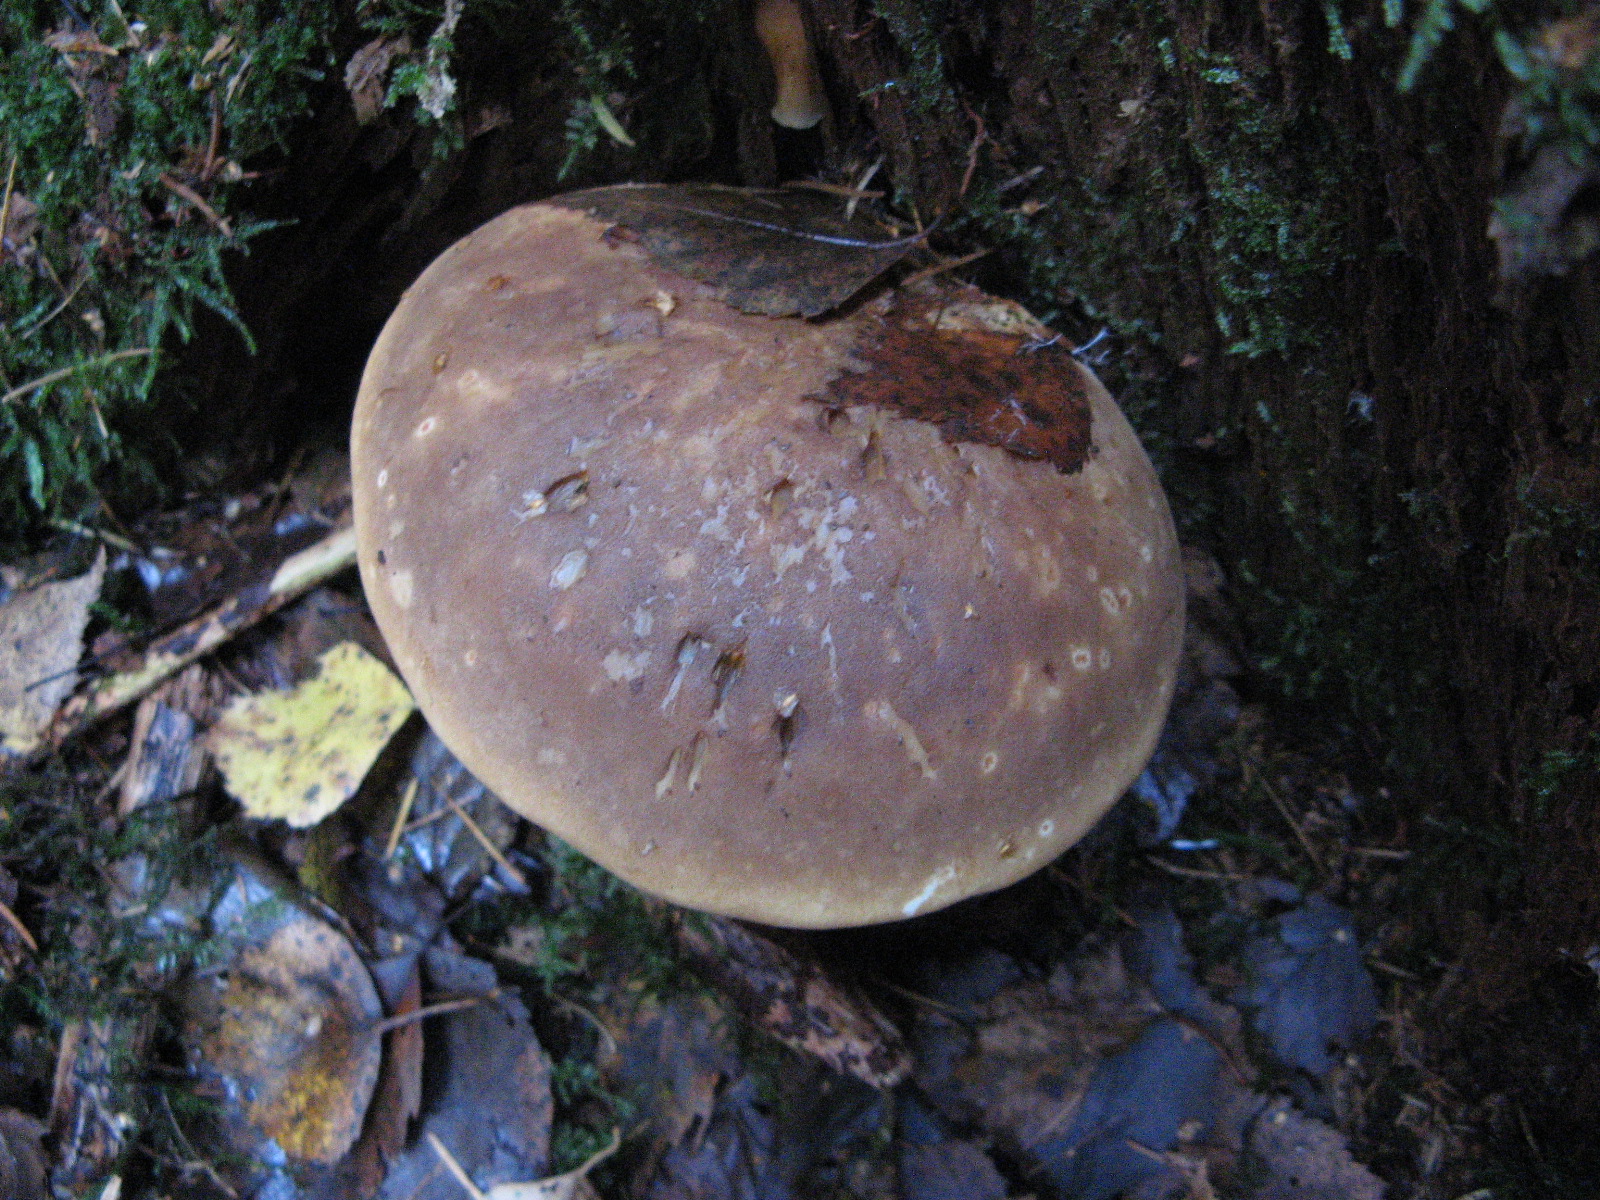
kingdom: Fungi
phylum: Basidiomycota
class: Agaricomycetes
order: Boletales
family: Tapinellaceae
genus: Tapinella
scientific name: Tapinella atrotomentosa
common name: sortfiltet viftesvamp
